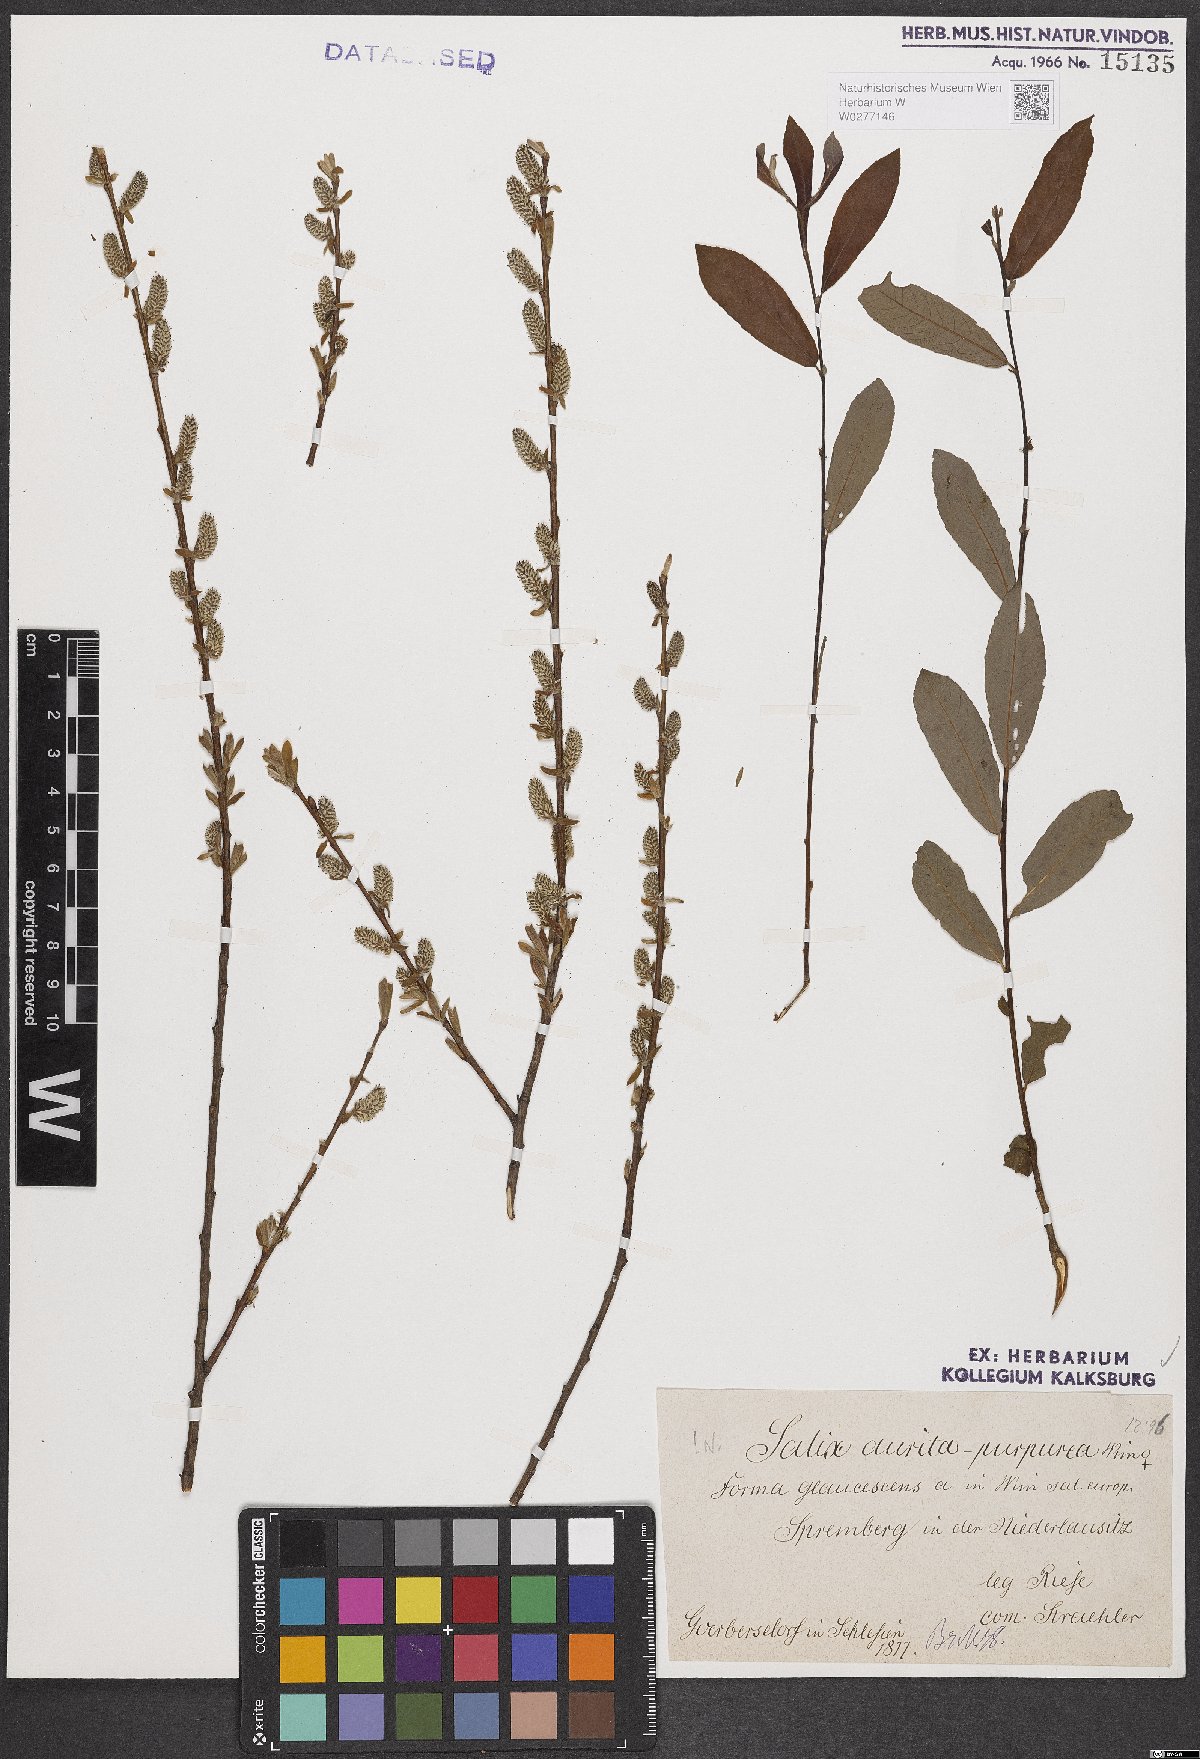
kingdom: Plantae
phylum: Tracheophyta
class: Magnoliopsida
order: Malpighiales
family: Salicaceae
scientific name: Salicaceae
